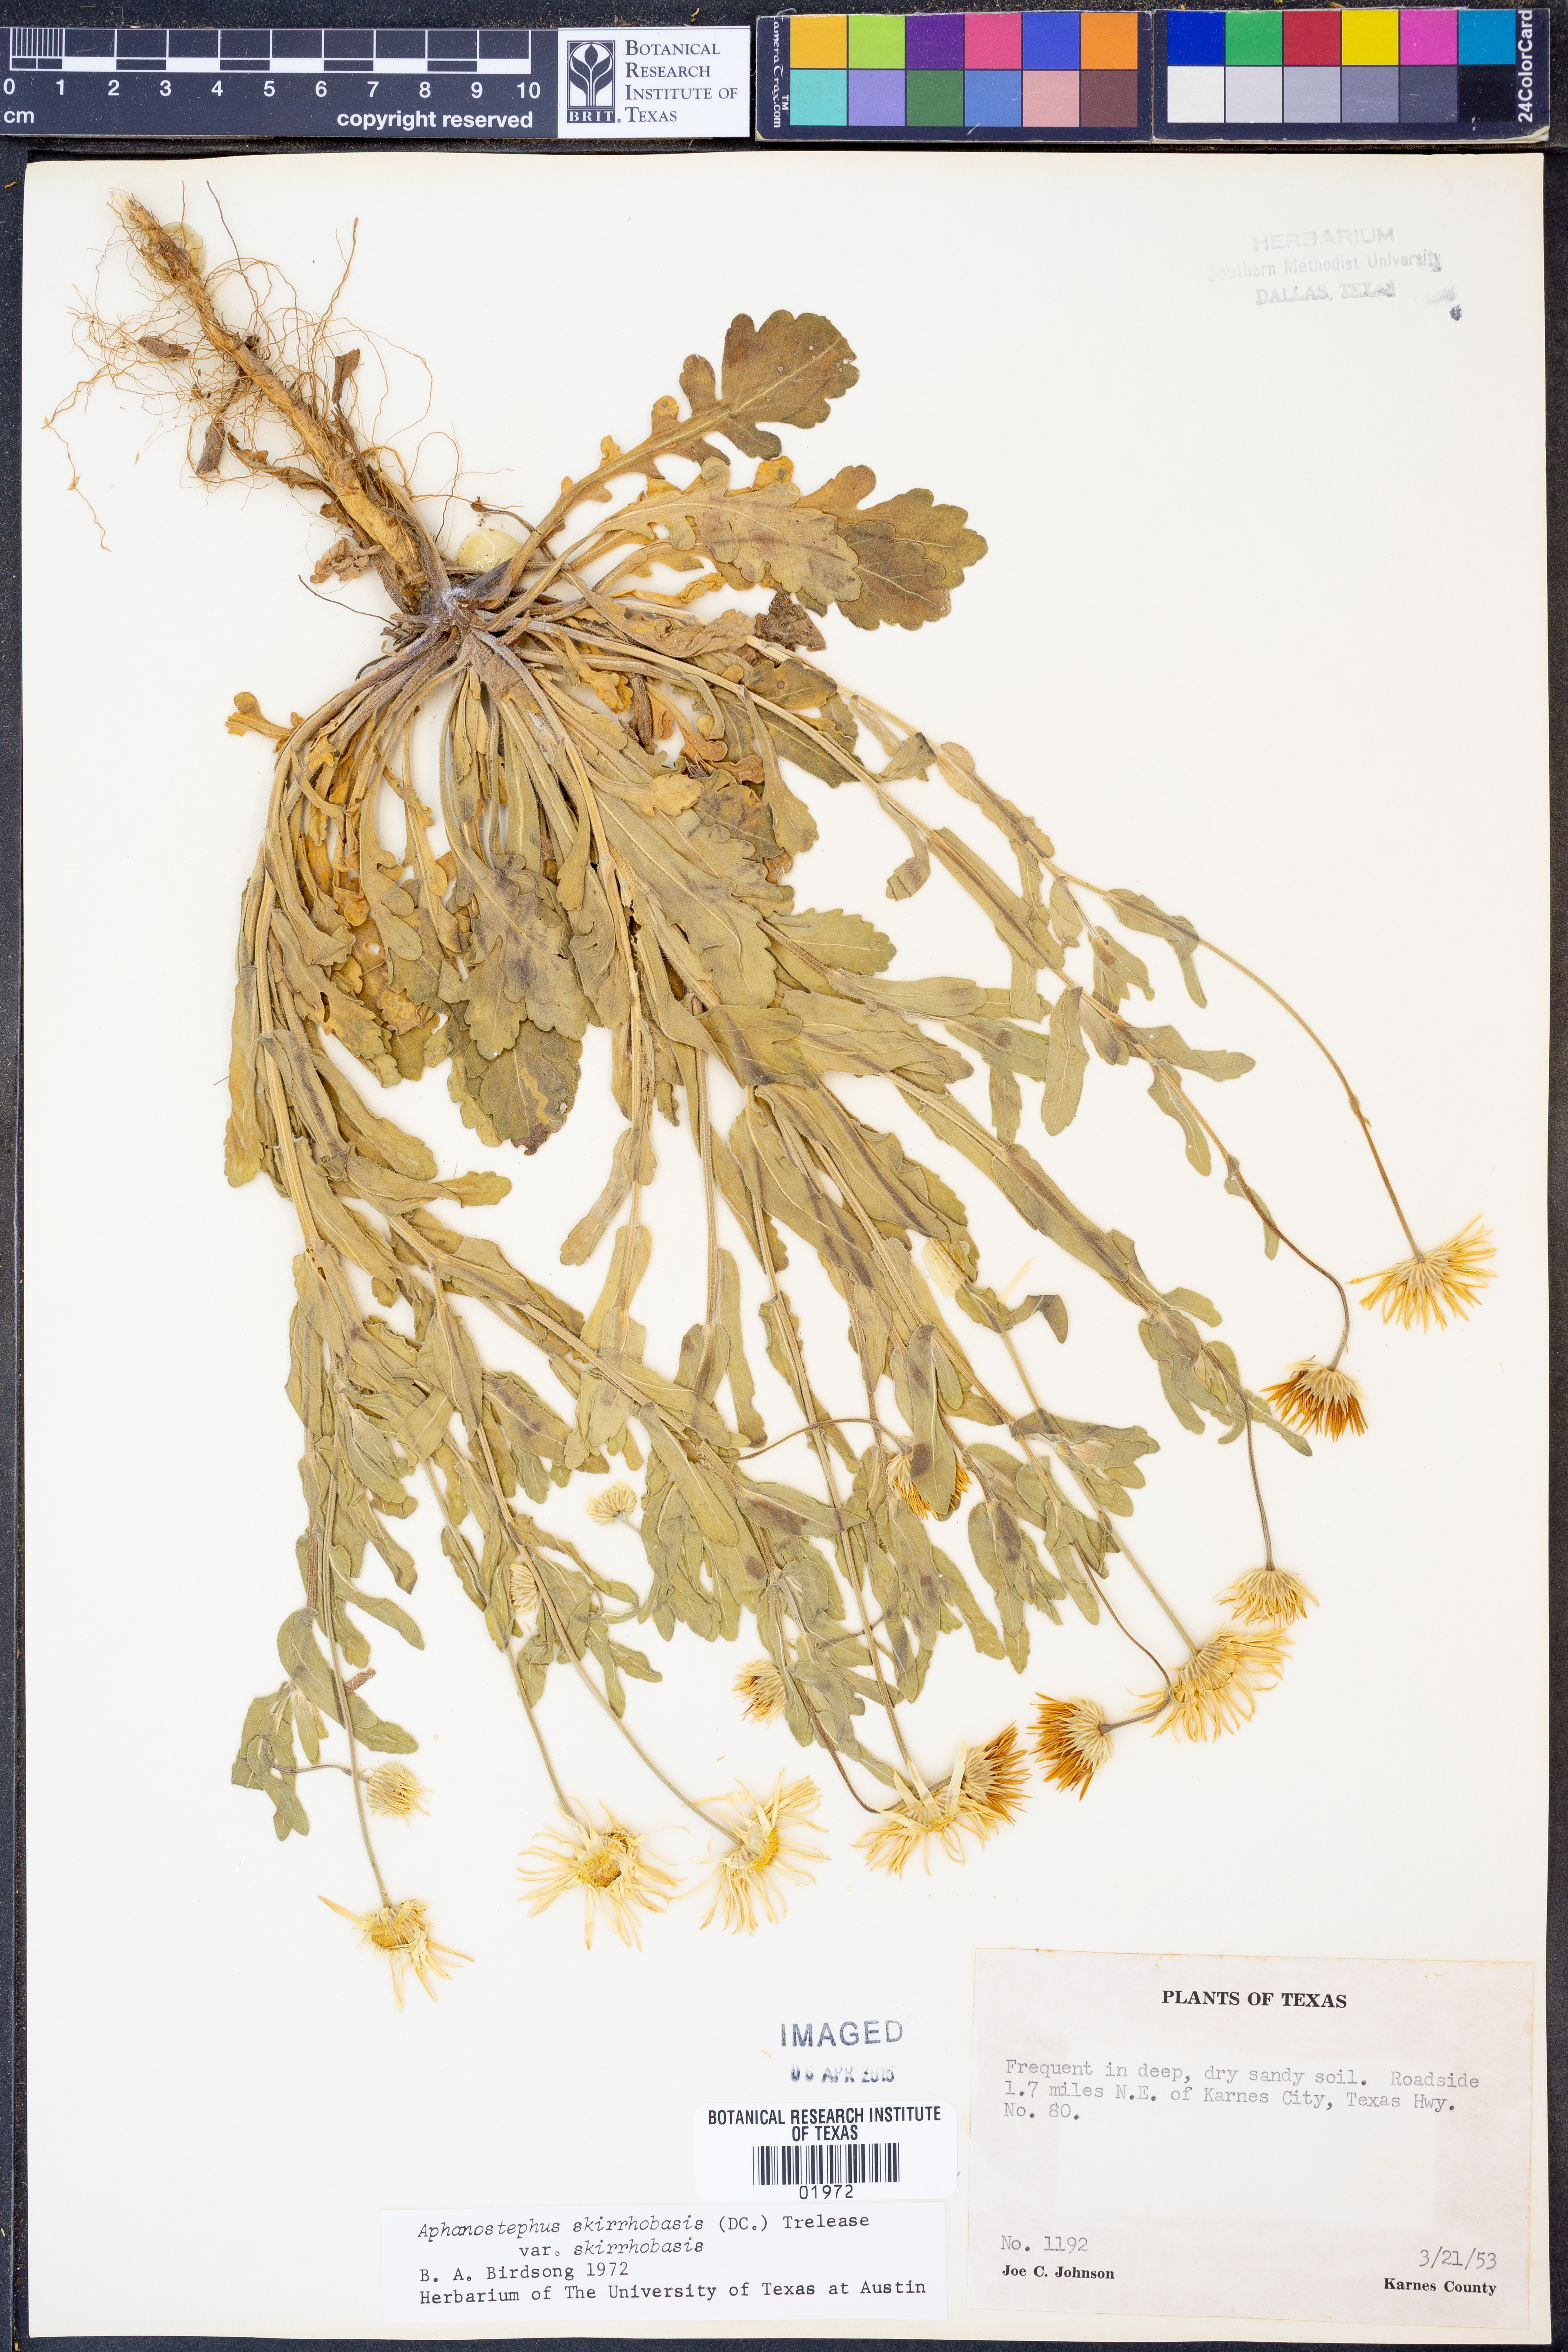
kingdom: Plantae
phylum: Tracheophyta
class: Magnoliopsida
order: Asterales
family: Asteraceae
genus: Aphanostephus
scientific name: Aphanostephus skirrhobasis
